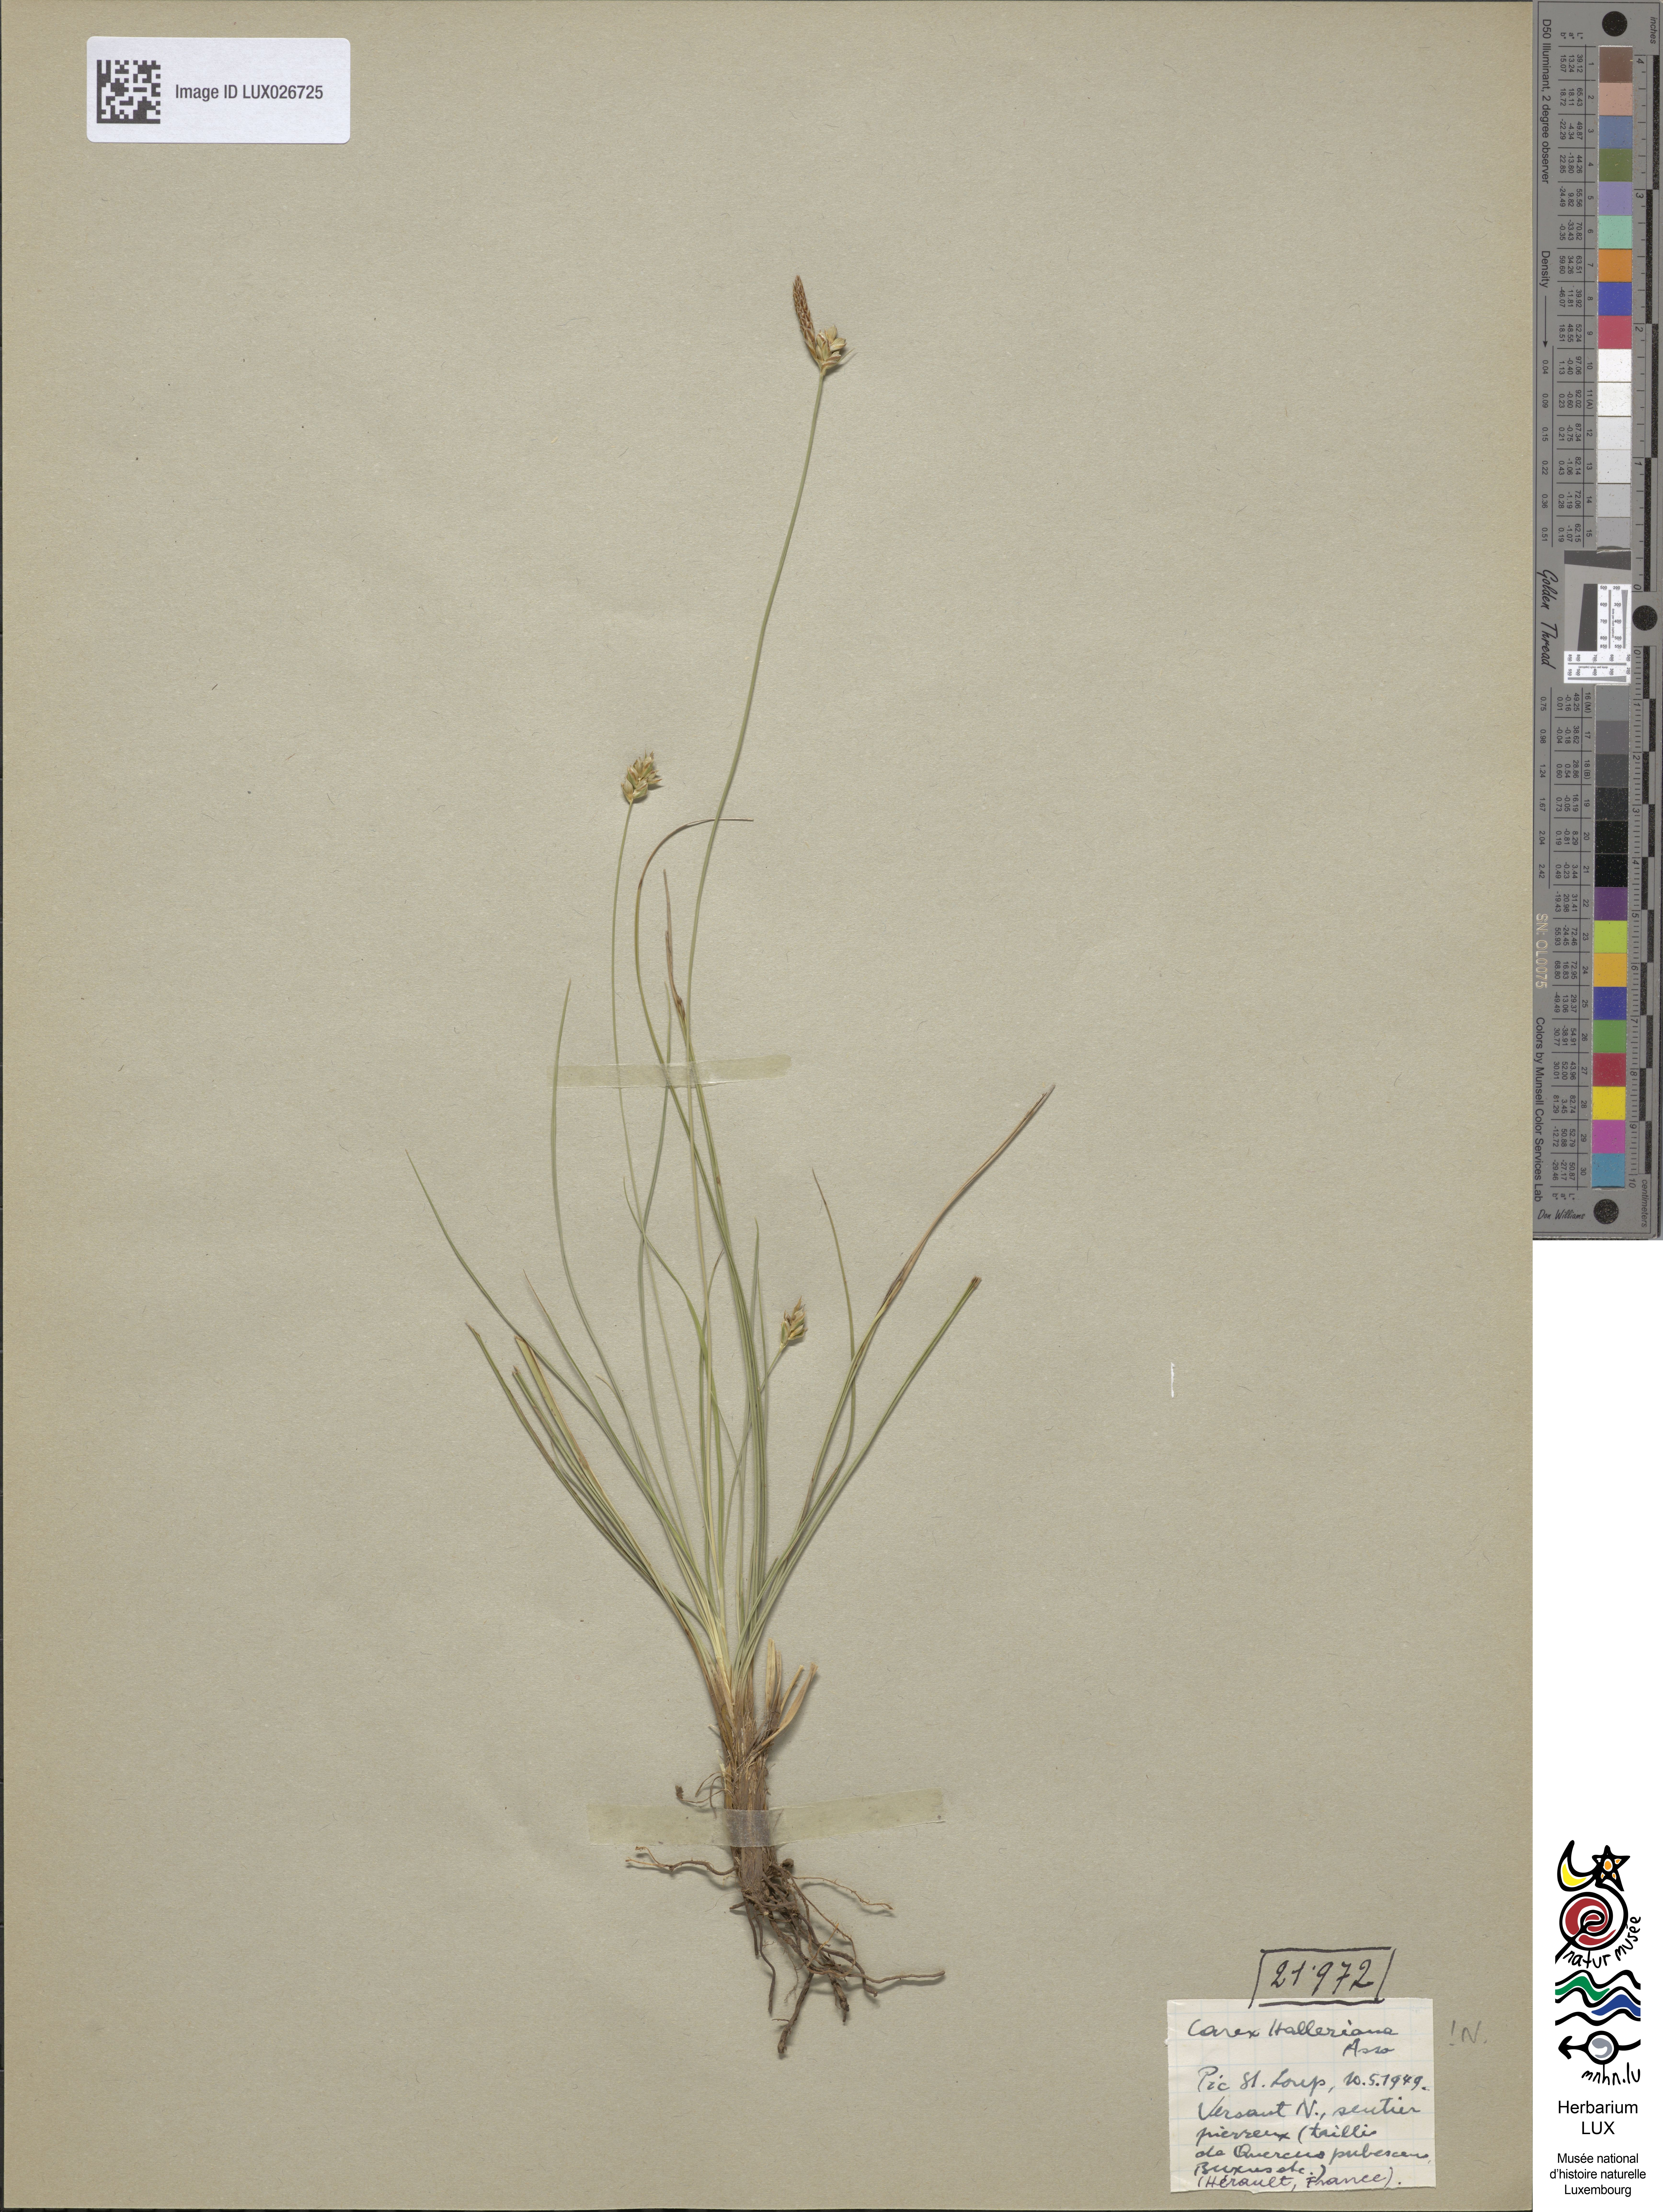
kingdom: Plantae
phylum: Tracheophyta
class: Liliopsida
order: Poales
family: Cyperaceae
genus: Carex
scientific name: Carex halleriana
